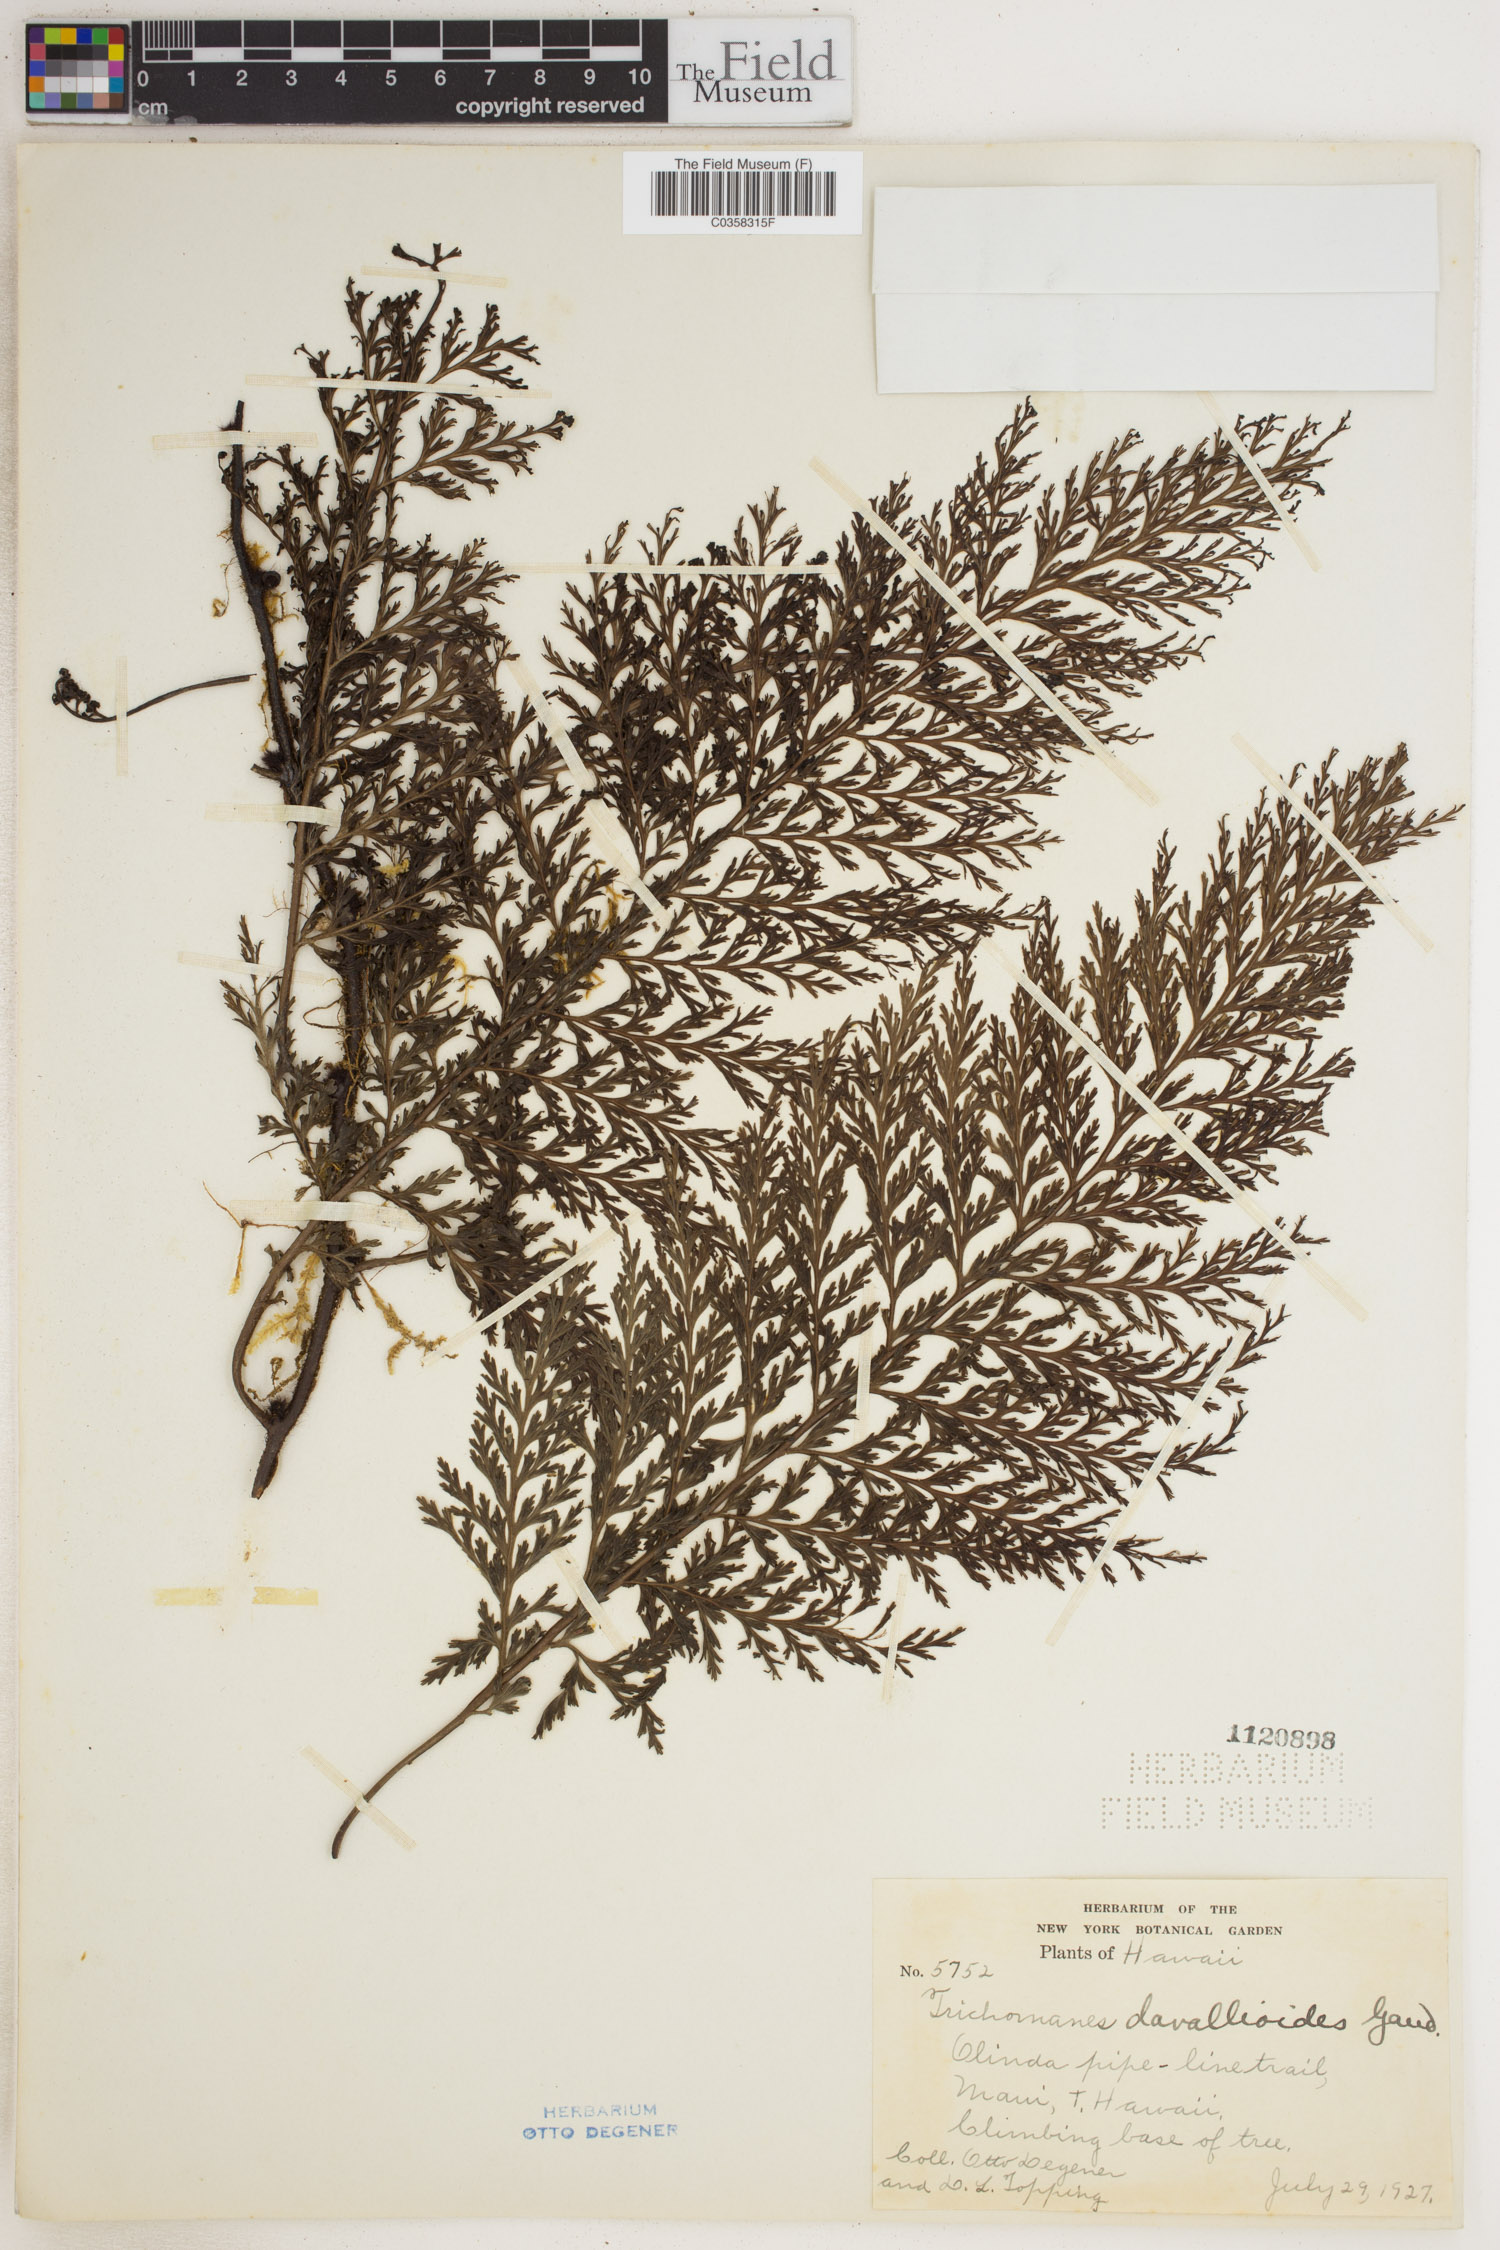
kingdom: Plantae
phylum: Tracheophyta
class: Polypodiopsida
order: Hymenophyllales
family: Hymenophyllaceae
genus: Trichomanes
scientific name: Trichomanes
